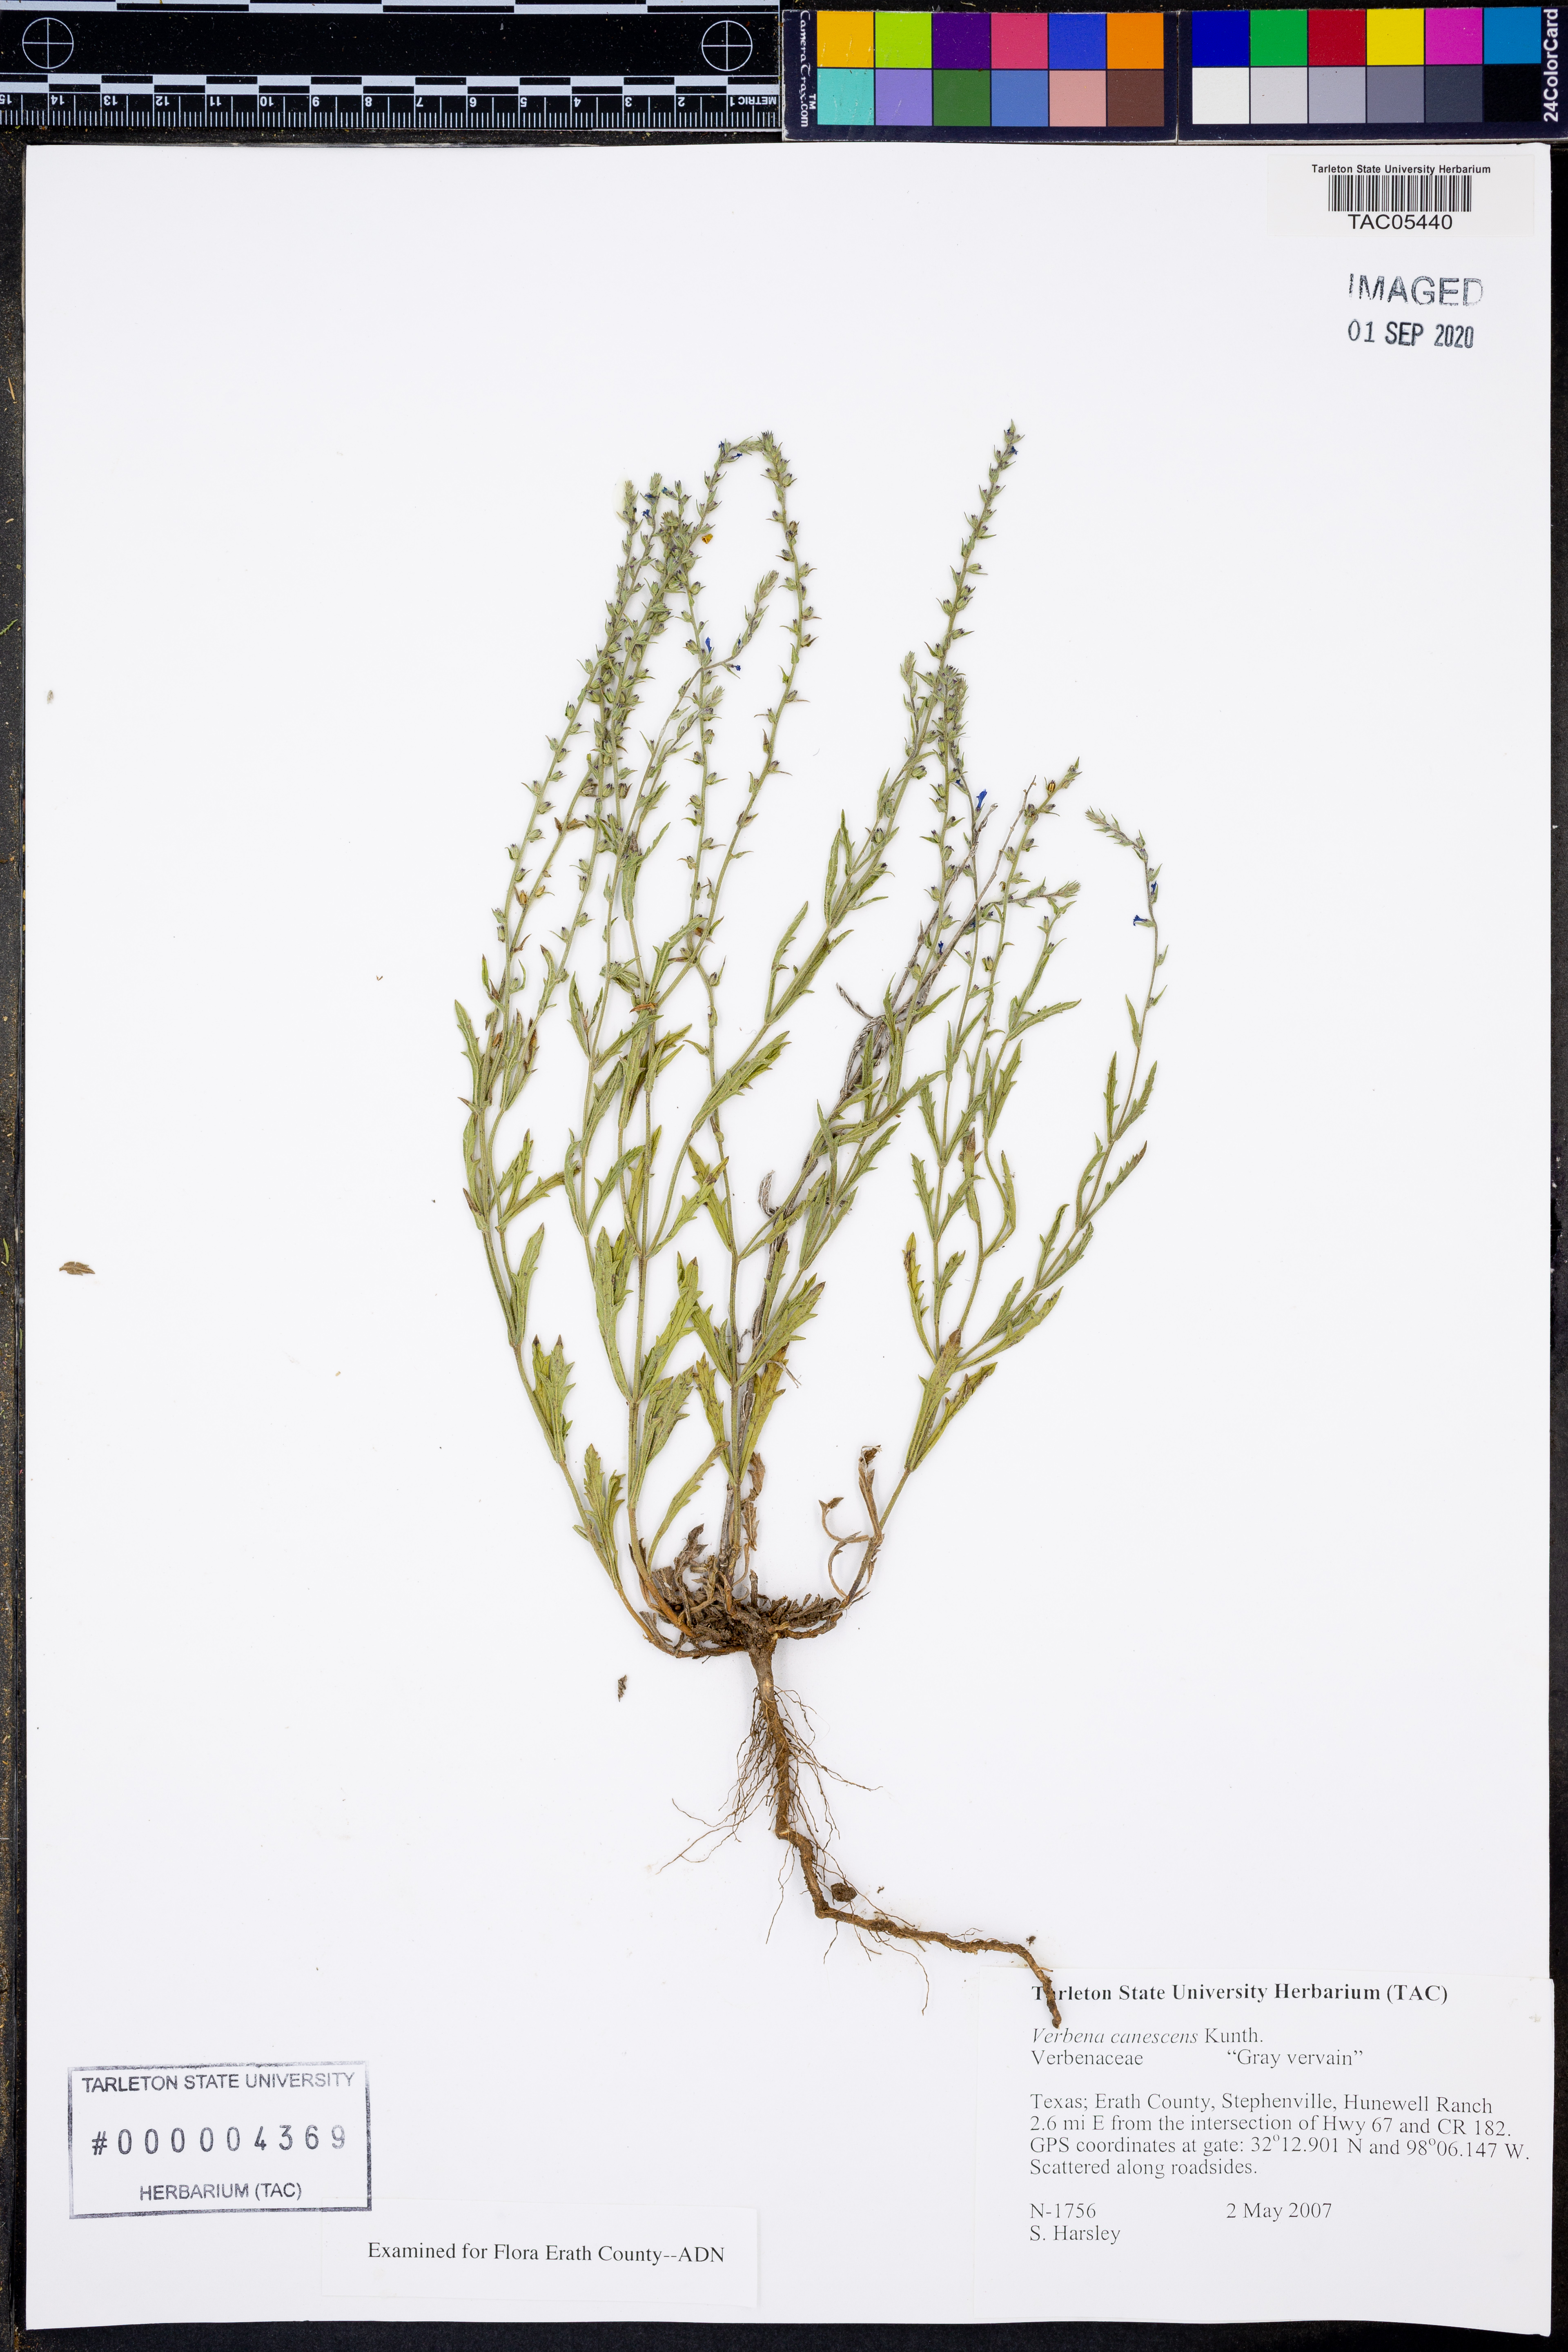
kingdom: Plantae
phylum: Tracheophyta
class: Magnoliopsida
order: Lamiales
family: Verbenaceae
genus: Verbena
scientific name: Verbena canescens
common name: Gray vervain
